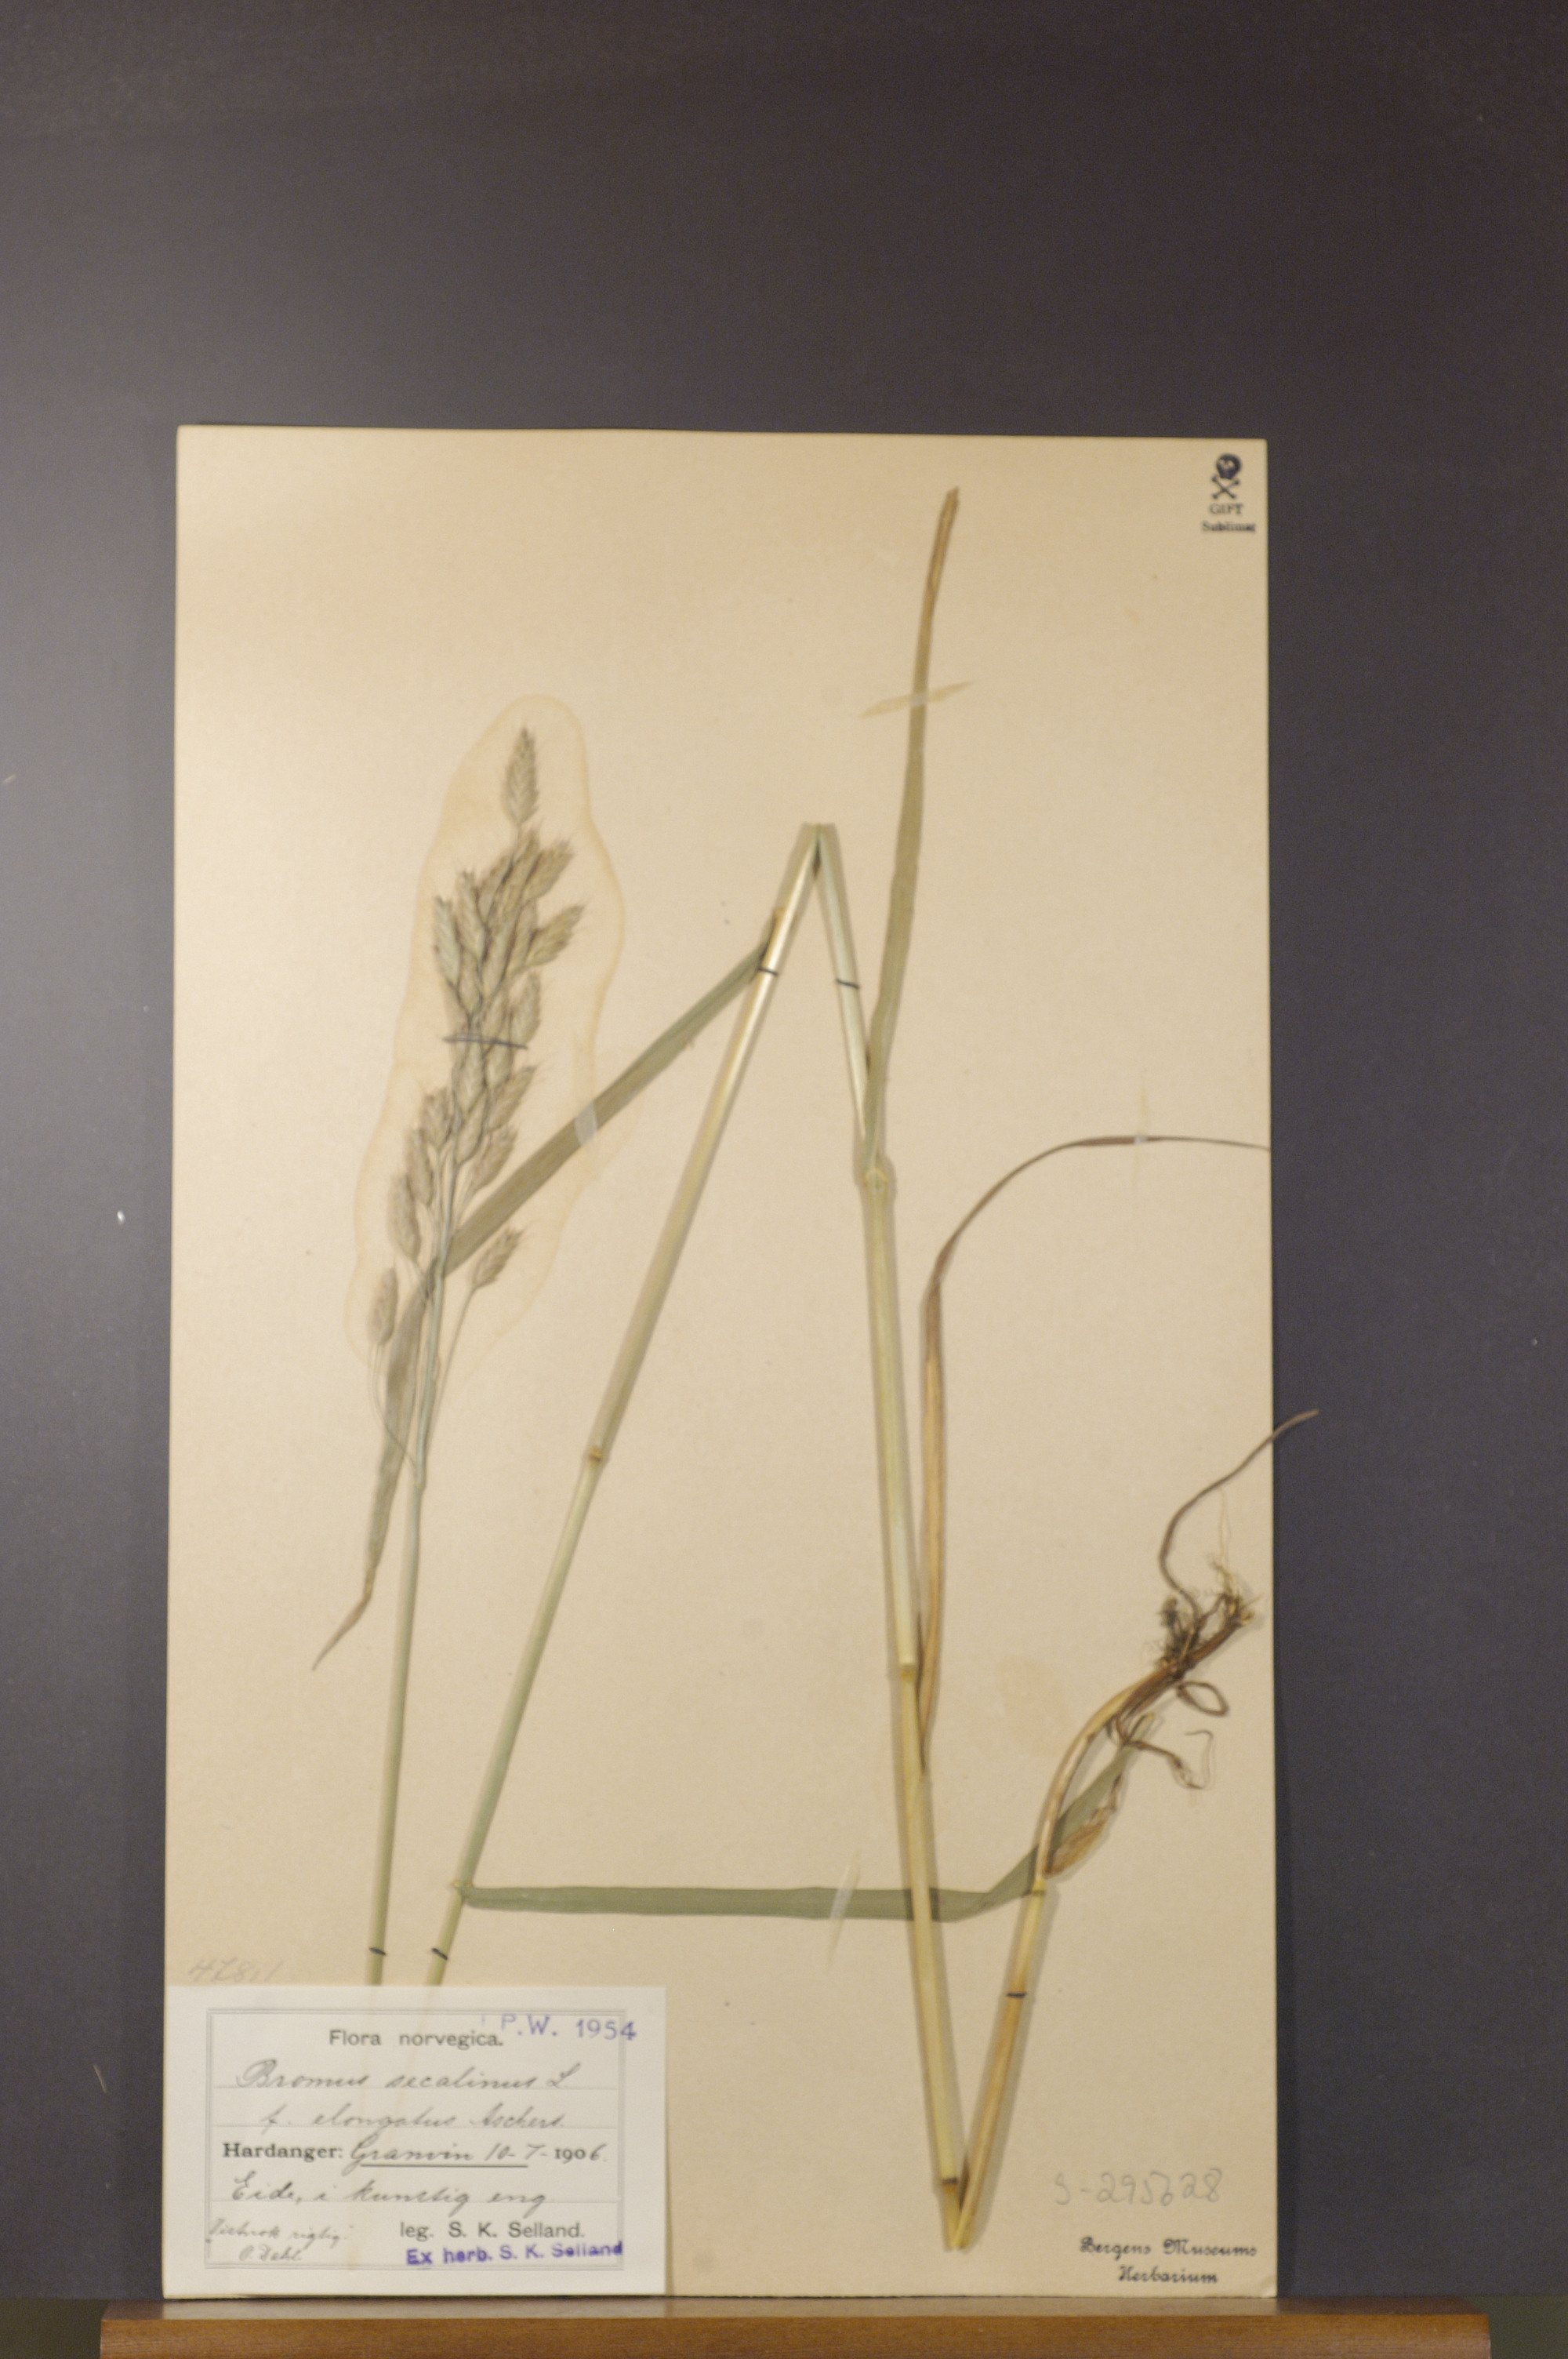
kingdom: Plantae
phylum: Tracheophyta
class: Liliopsida
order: Poales
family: Poaceae
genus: Bromus
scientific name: Bromus secalinus
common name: Rye brome
